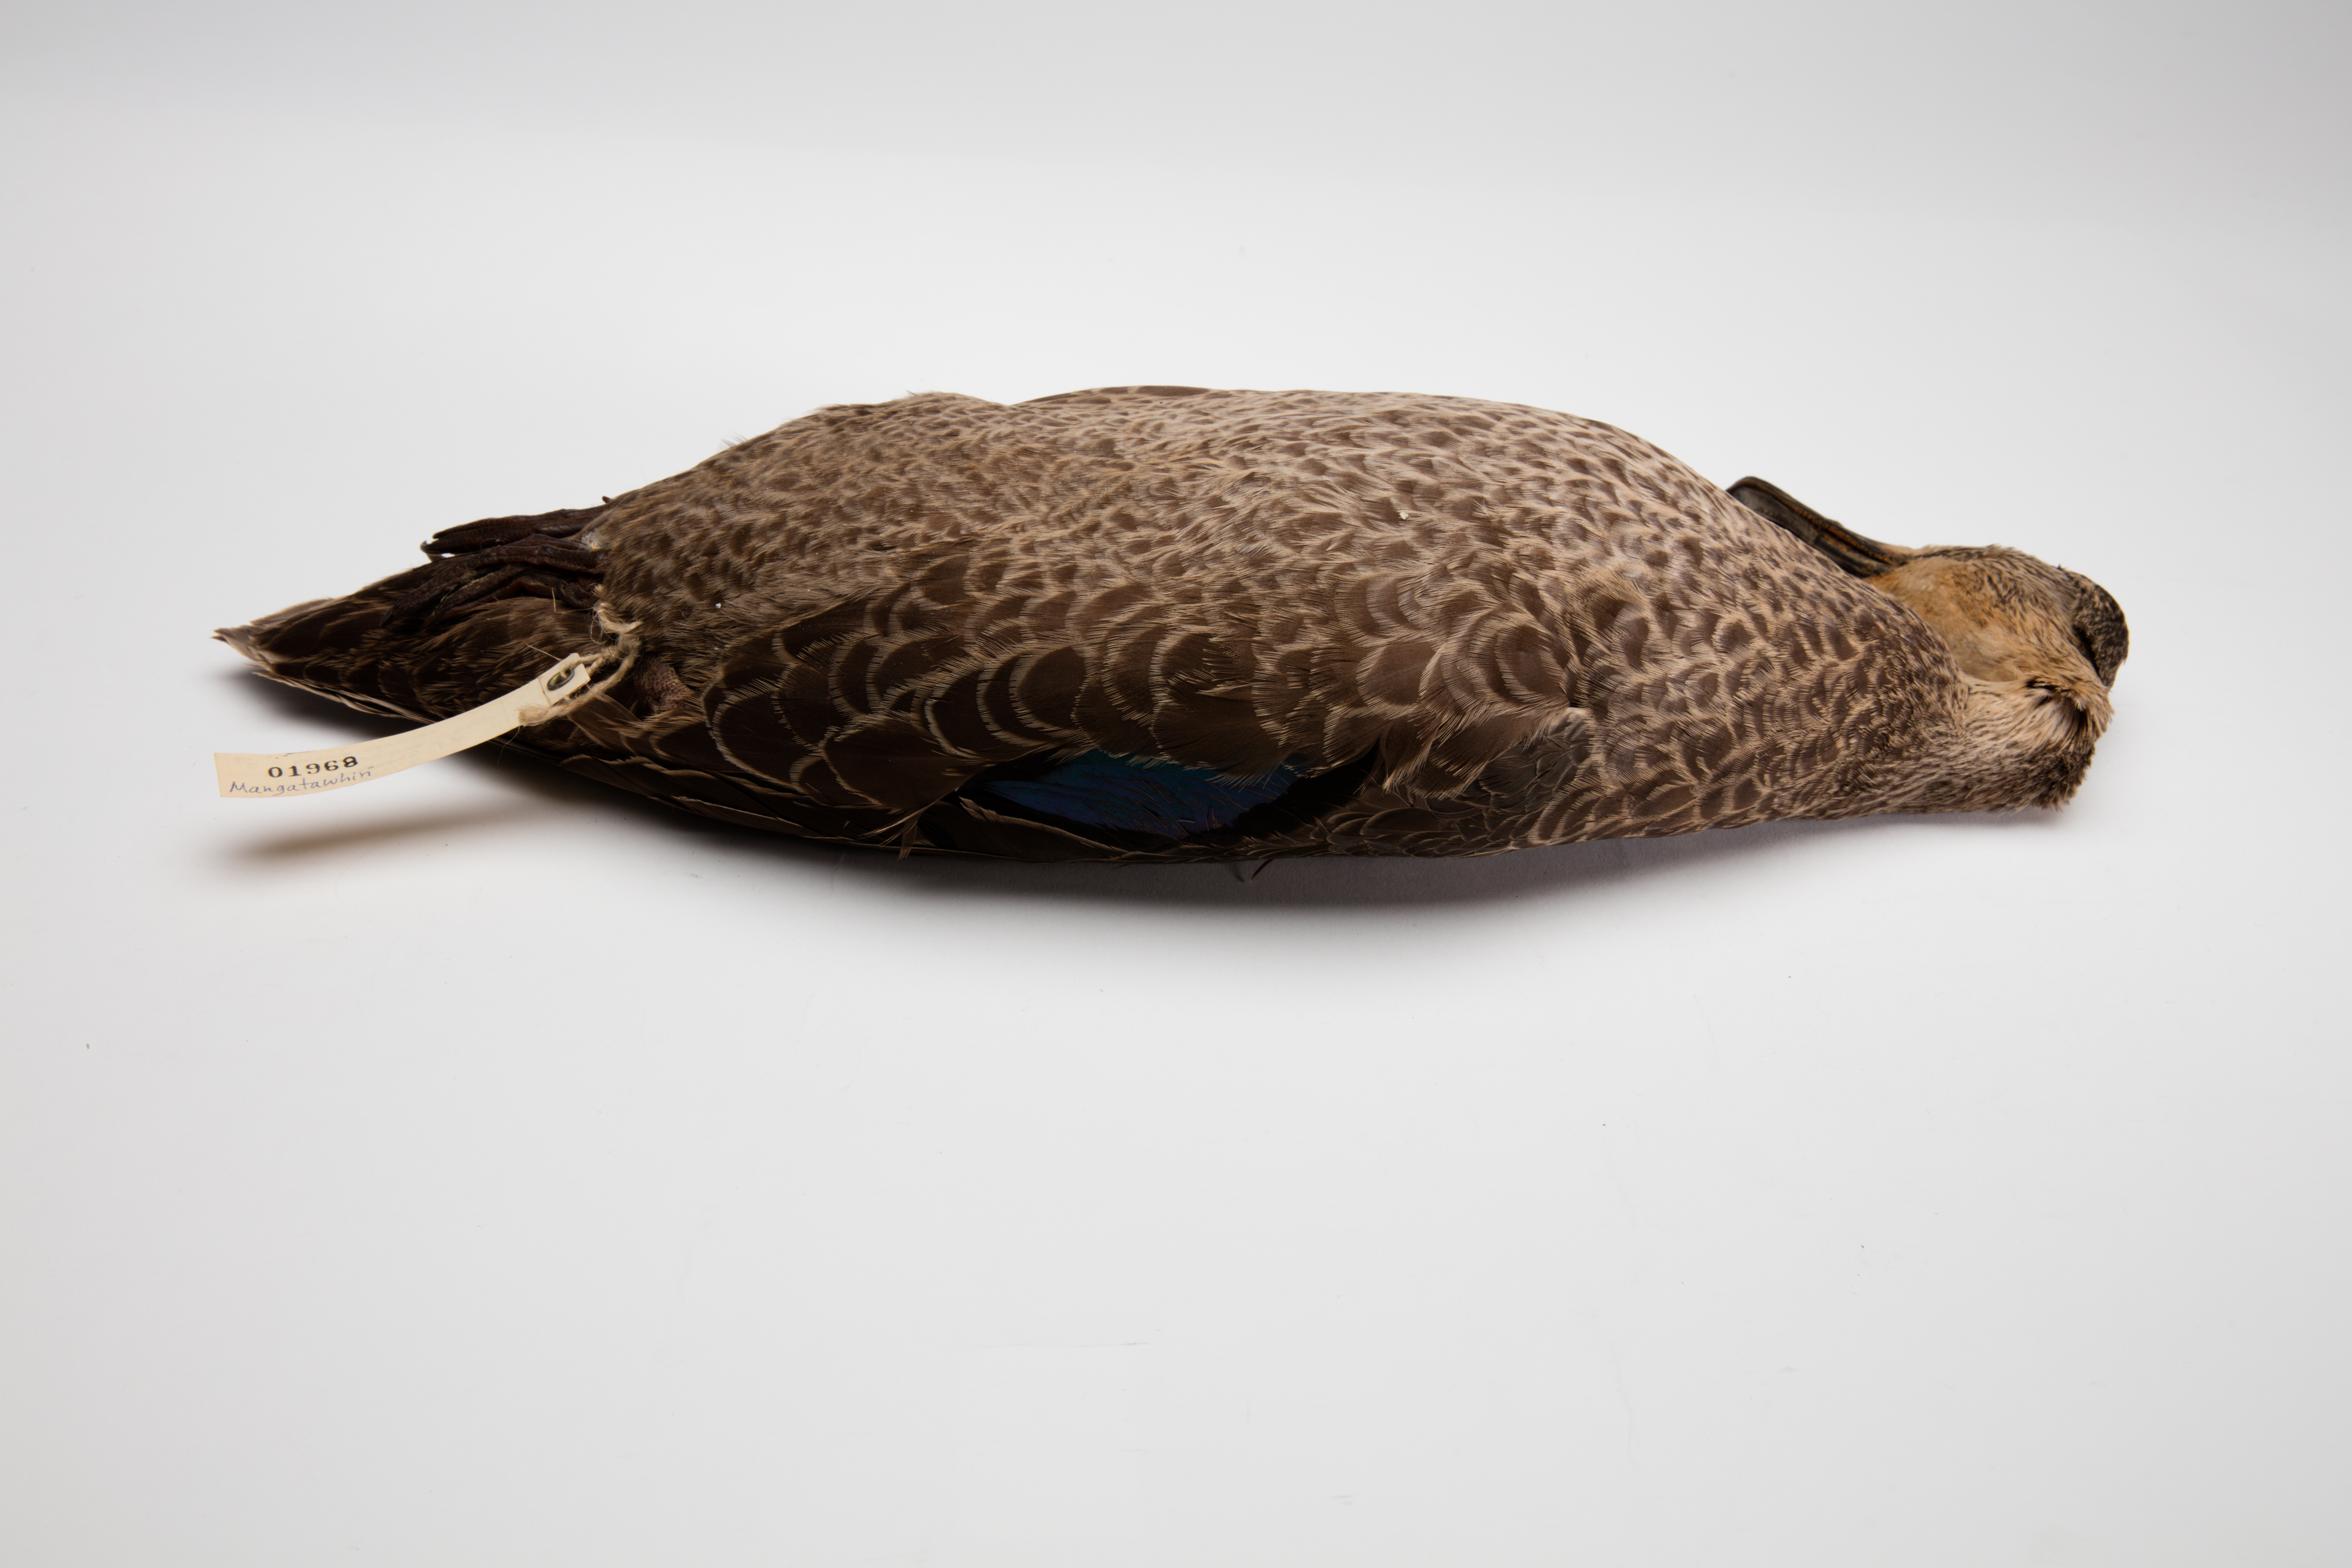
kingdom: Animalia
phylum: Chordata
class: Aves
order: Anseriformes
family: Anatidae
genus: Anas
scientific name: Anas superciliosa
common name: Pacific black duck
